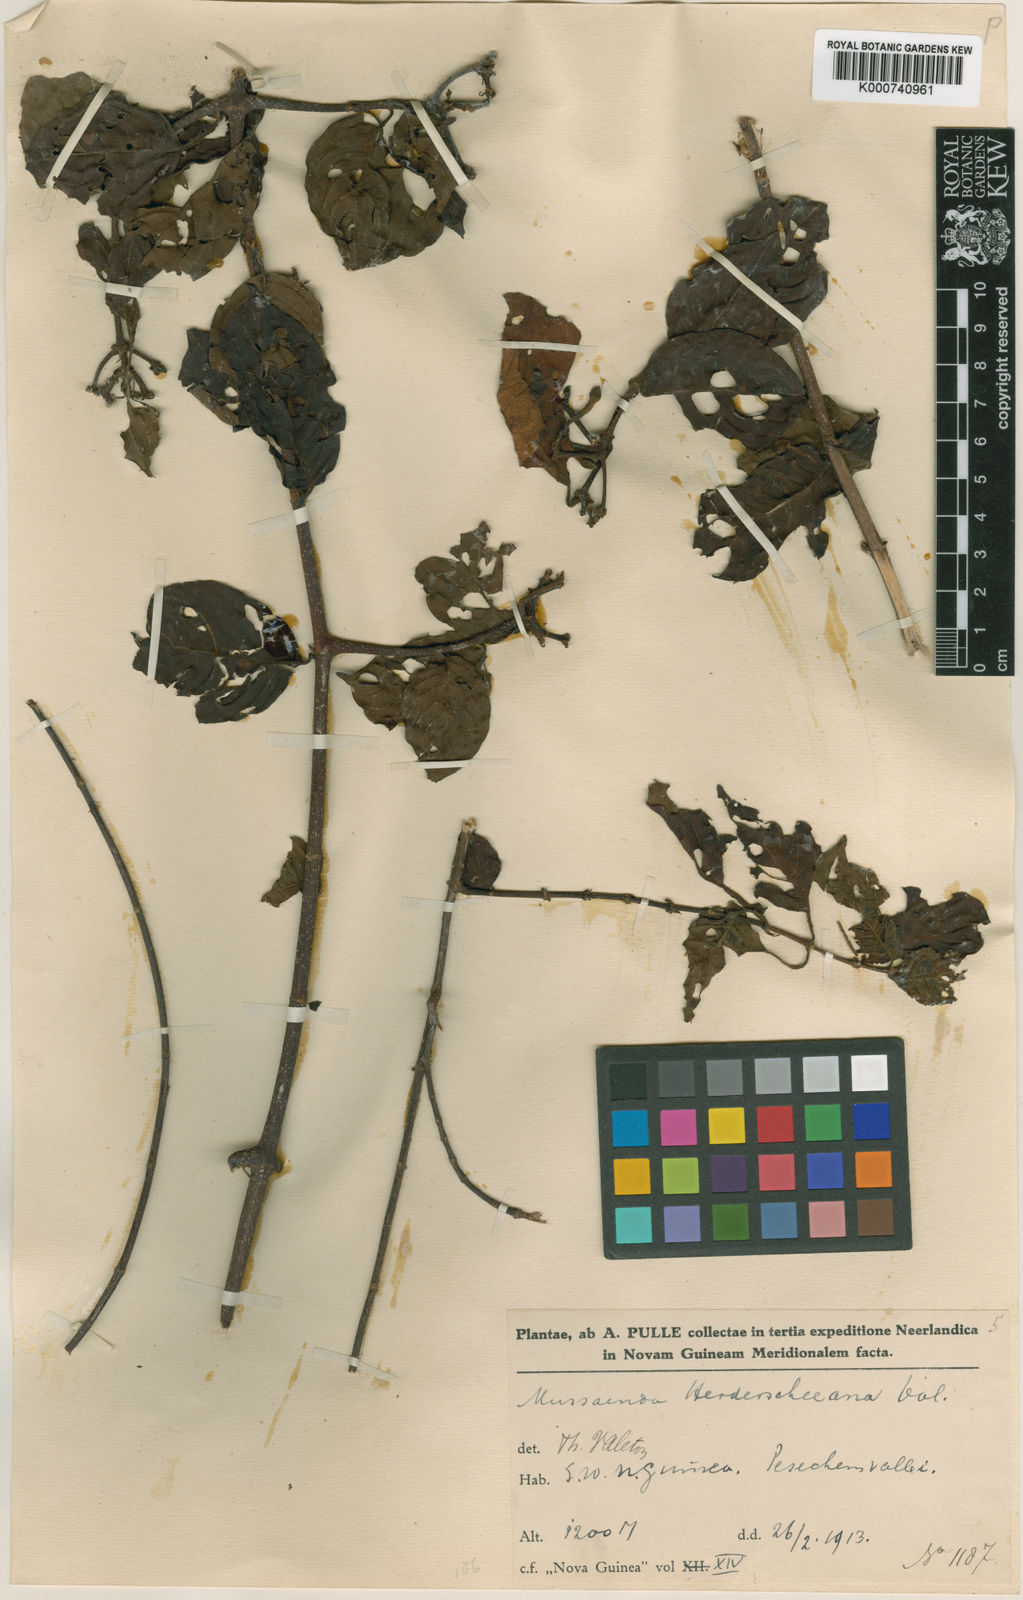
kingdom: Plantae
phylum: Tracheophyta
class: Magnoliopsida
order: Gentianales
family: Rubiaceae
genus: Mussaenda
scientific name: Mussaenda herderscheeana
